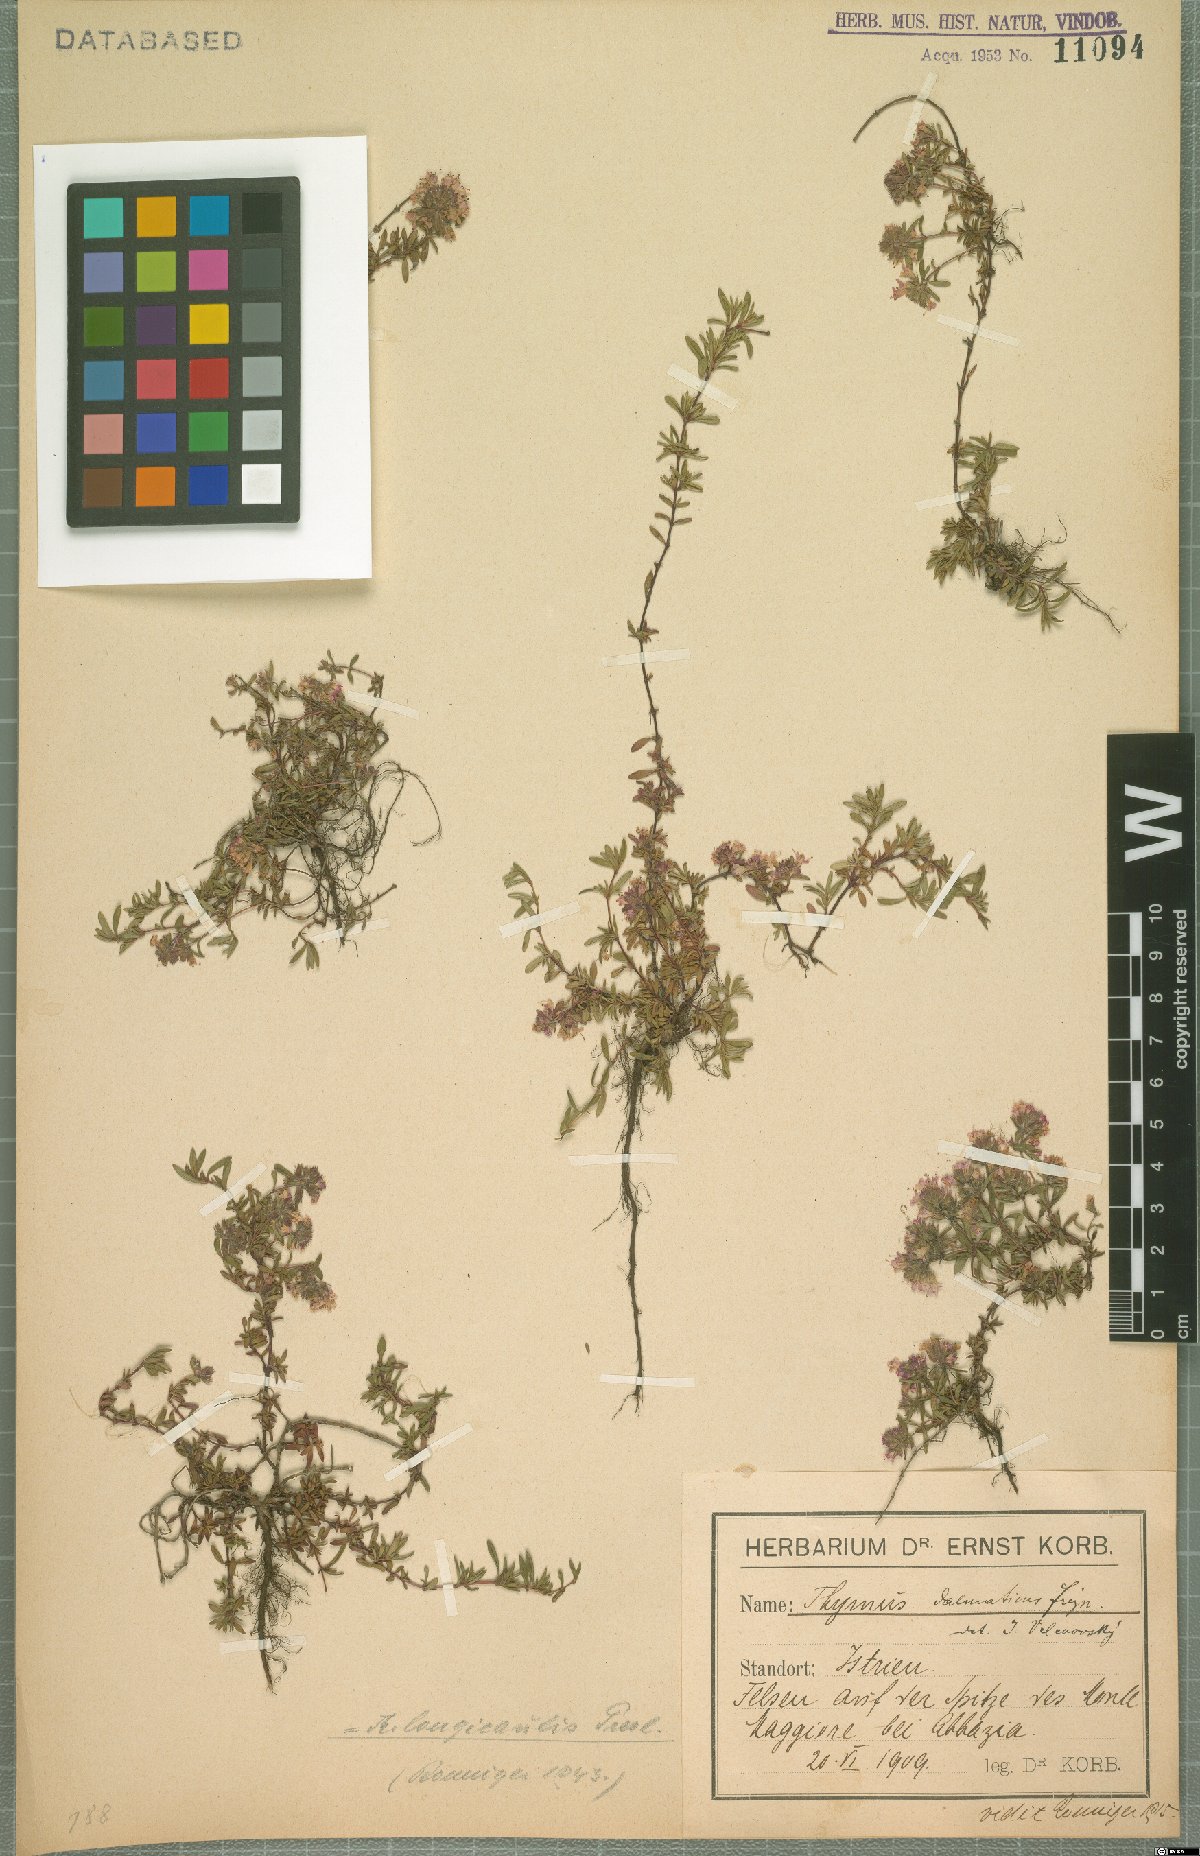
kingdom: Plantae
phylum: Tracheophyta
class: Magnoliopsida
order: Lamiales
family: Lamiaceae
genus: Thymus
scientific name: Thymus longicaulis
